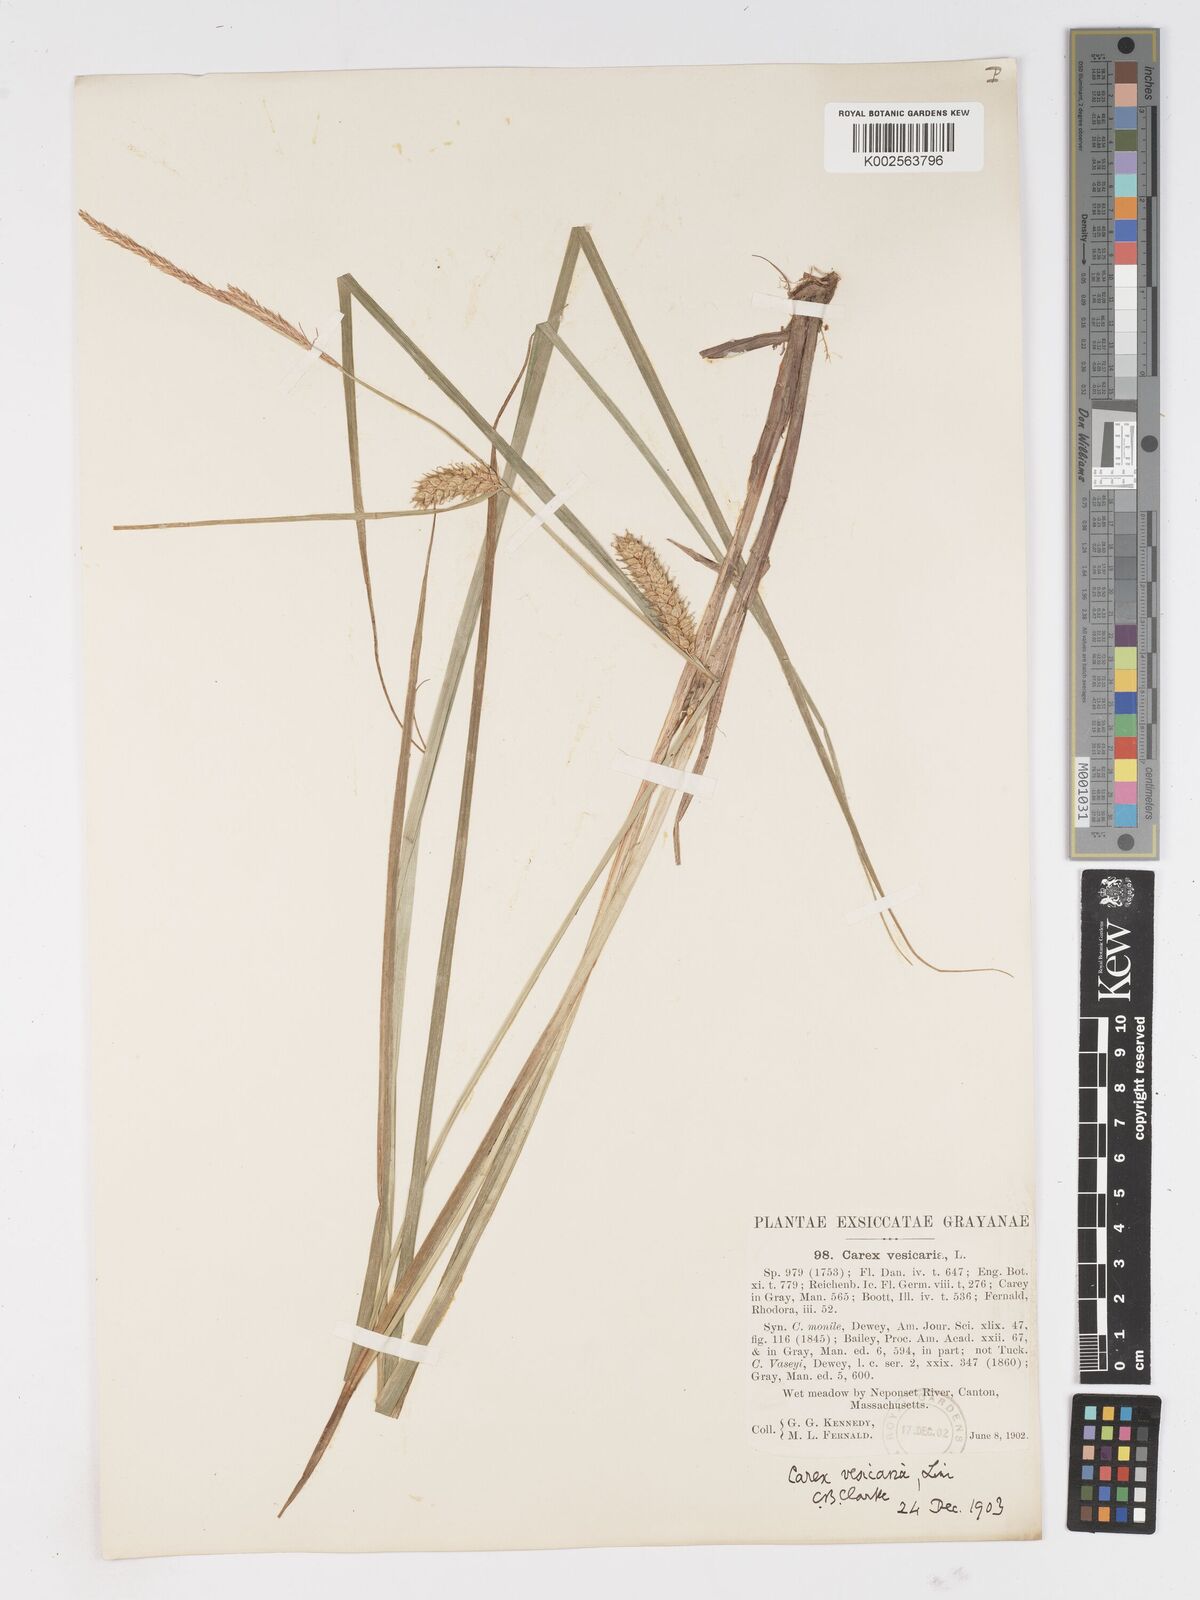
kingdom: Plantae
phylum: Tracheophyta
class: Liliopsida
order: Poales
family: Cyperaceae
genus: Carex
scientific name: Carex vesicaria
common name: Bladder-sedge
